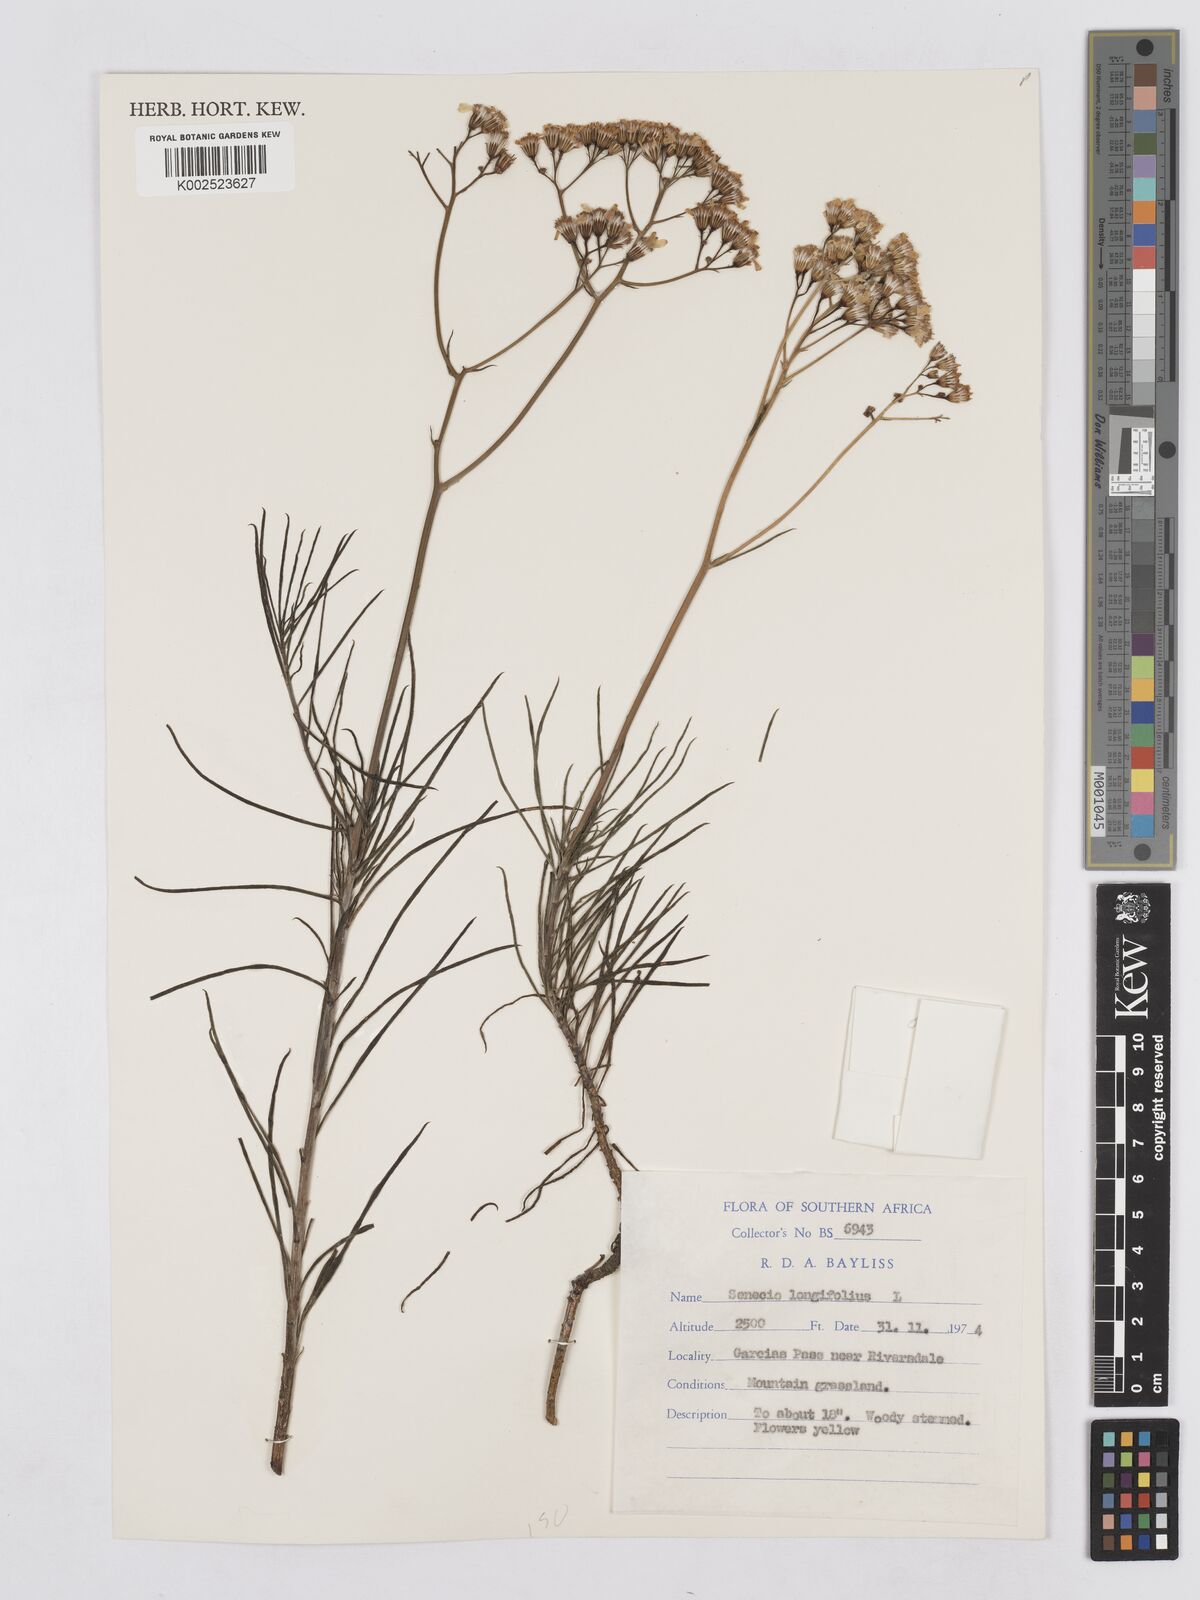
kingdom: Plantae
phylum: Tracheophyta
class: Magnoliopsida
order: Asterales
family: Asteraceae
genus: Senecio
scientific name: Senecio linifolius
